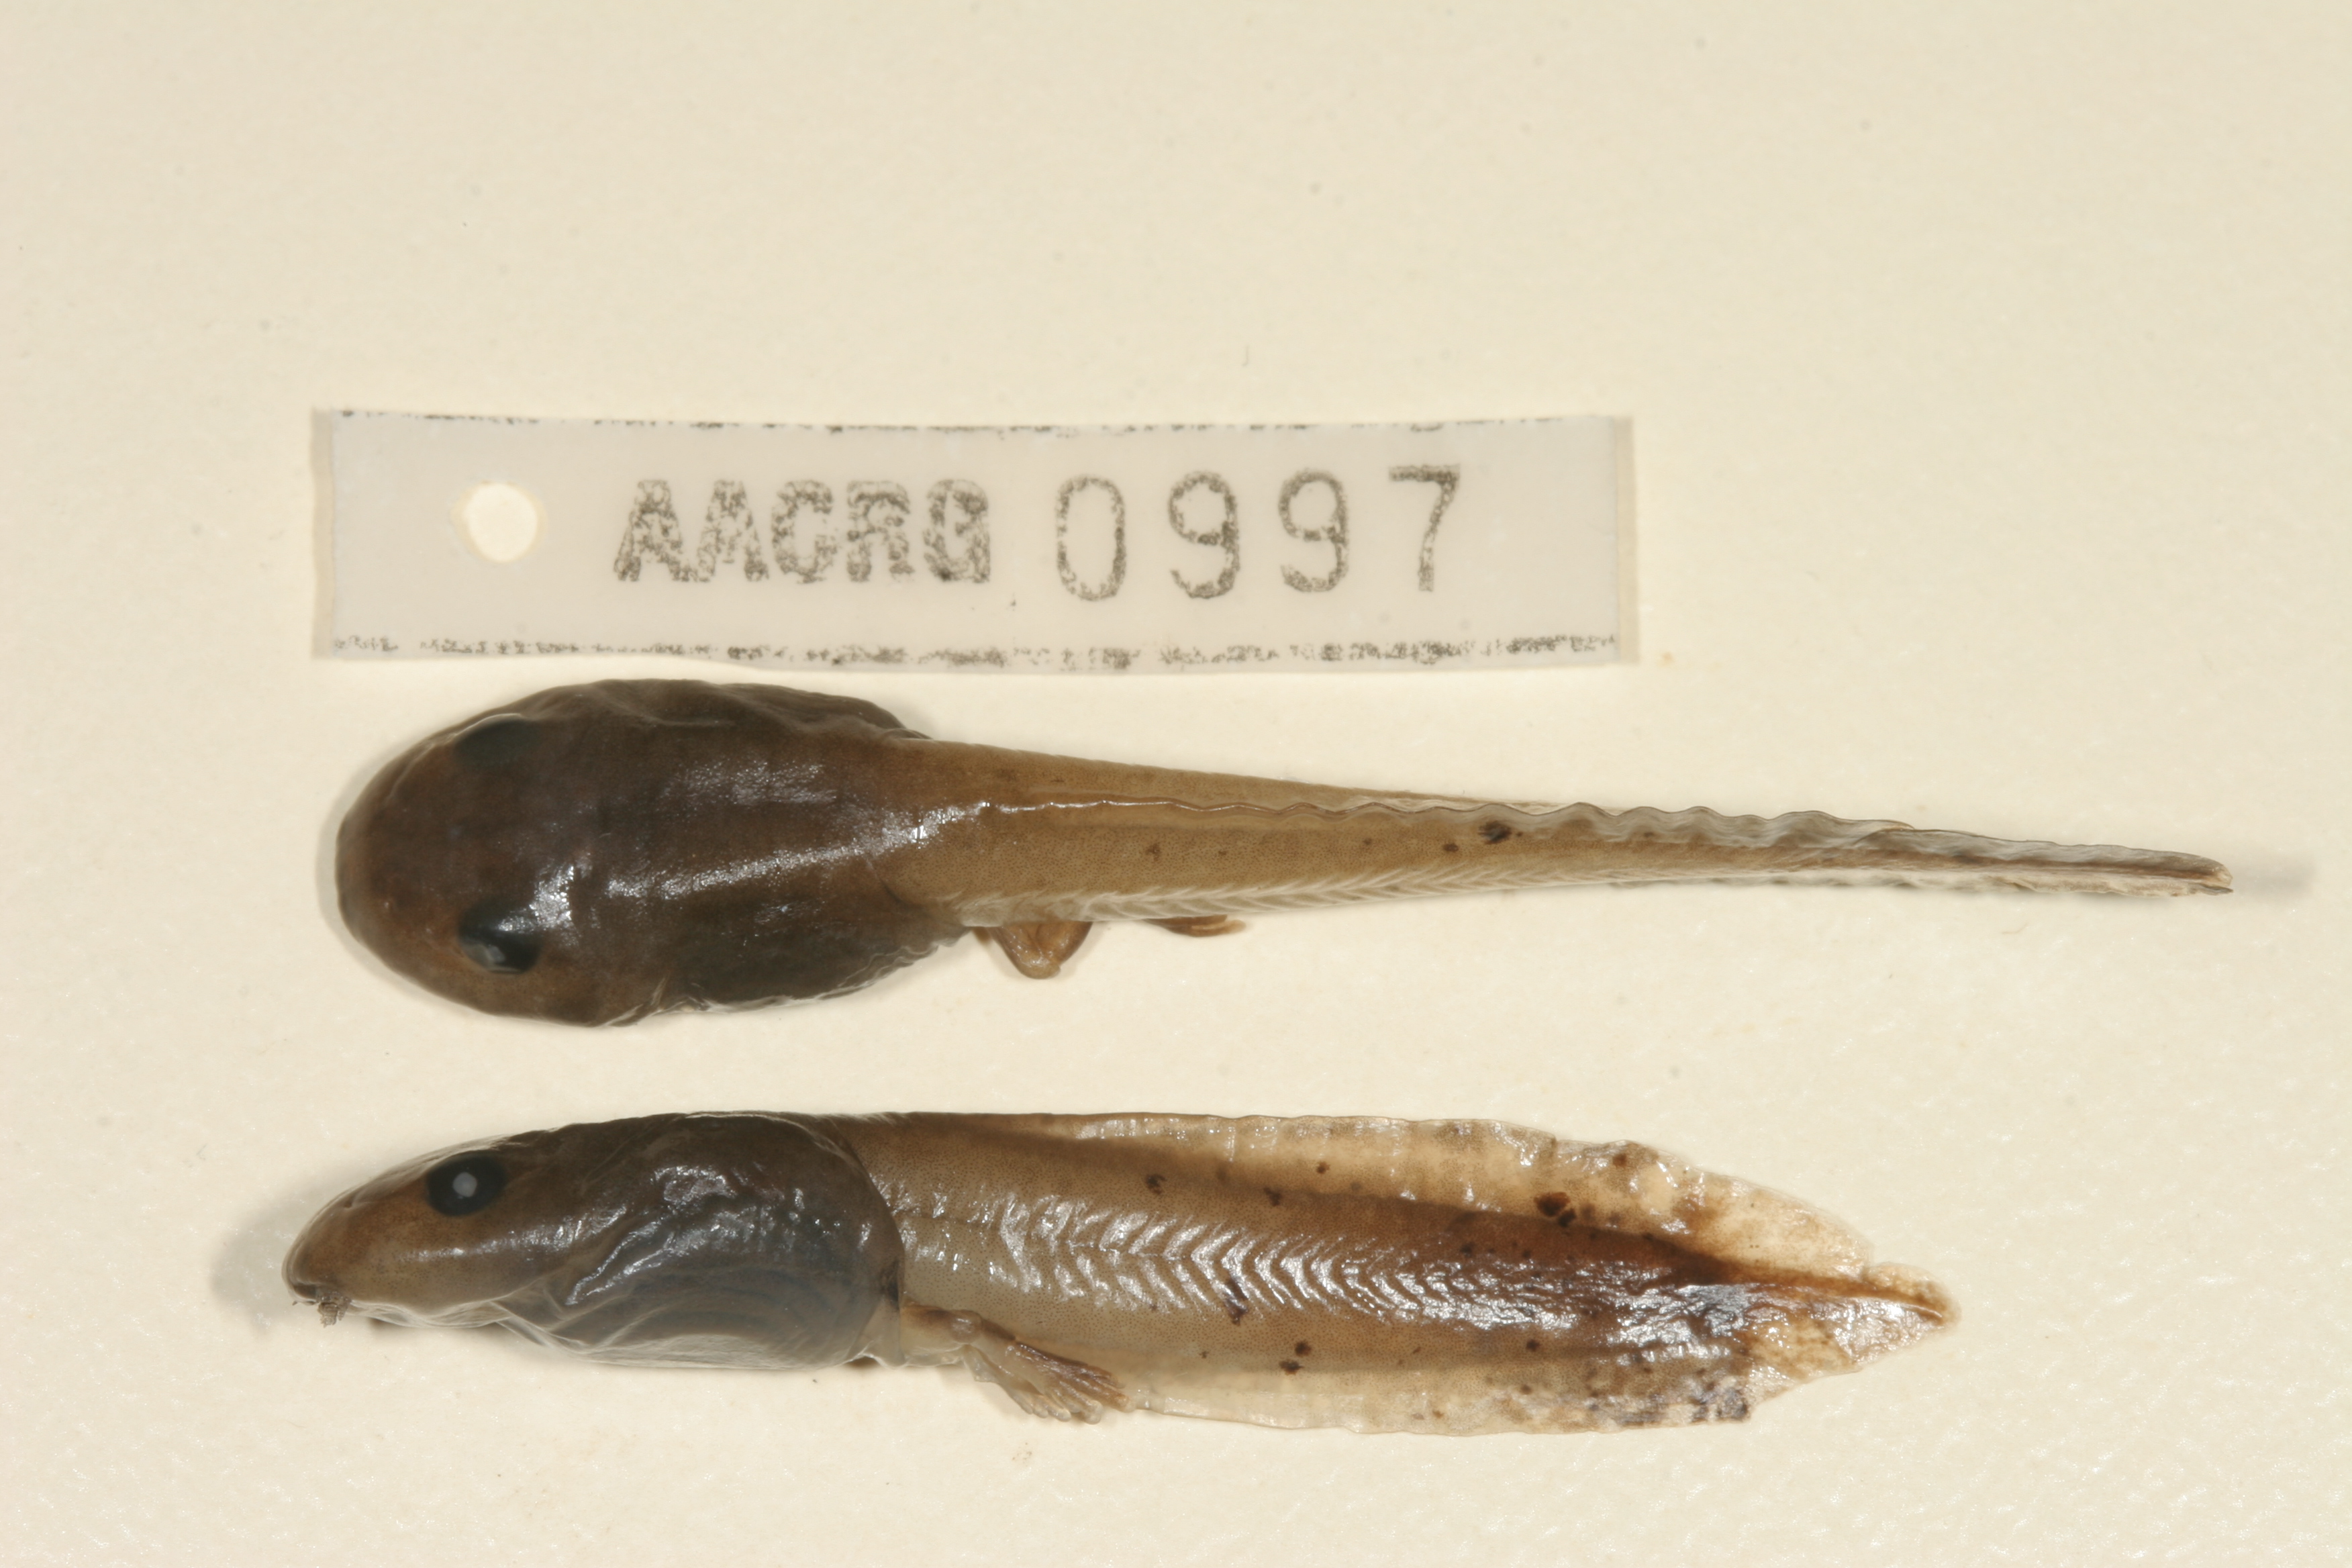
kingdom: Animalia
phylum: Chordata
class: Amphibia
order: Anura
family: Arthroleptidae
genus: Leptopelis
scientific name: Leptopelis mossambicus
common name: Mozambique tree frog
